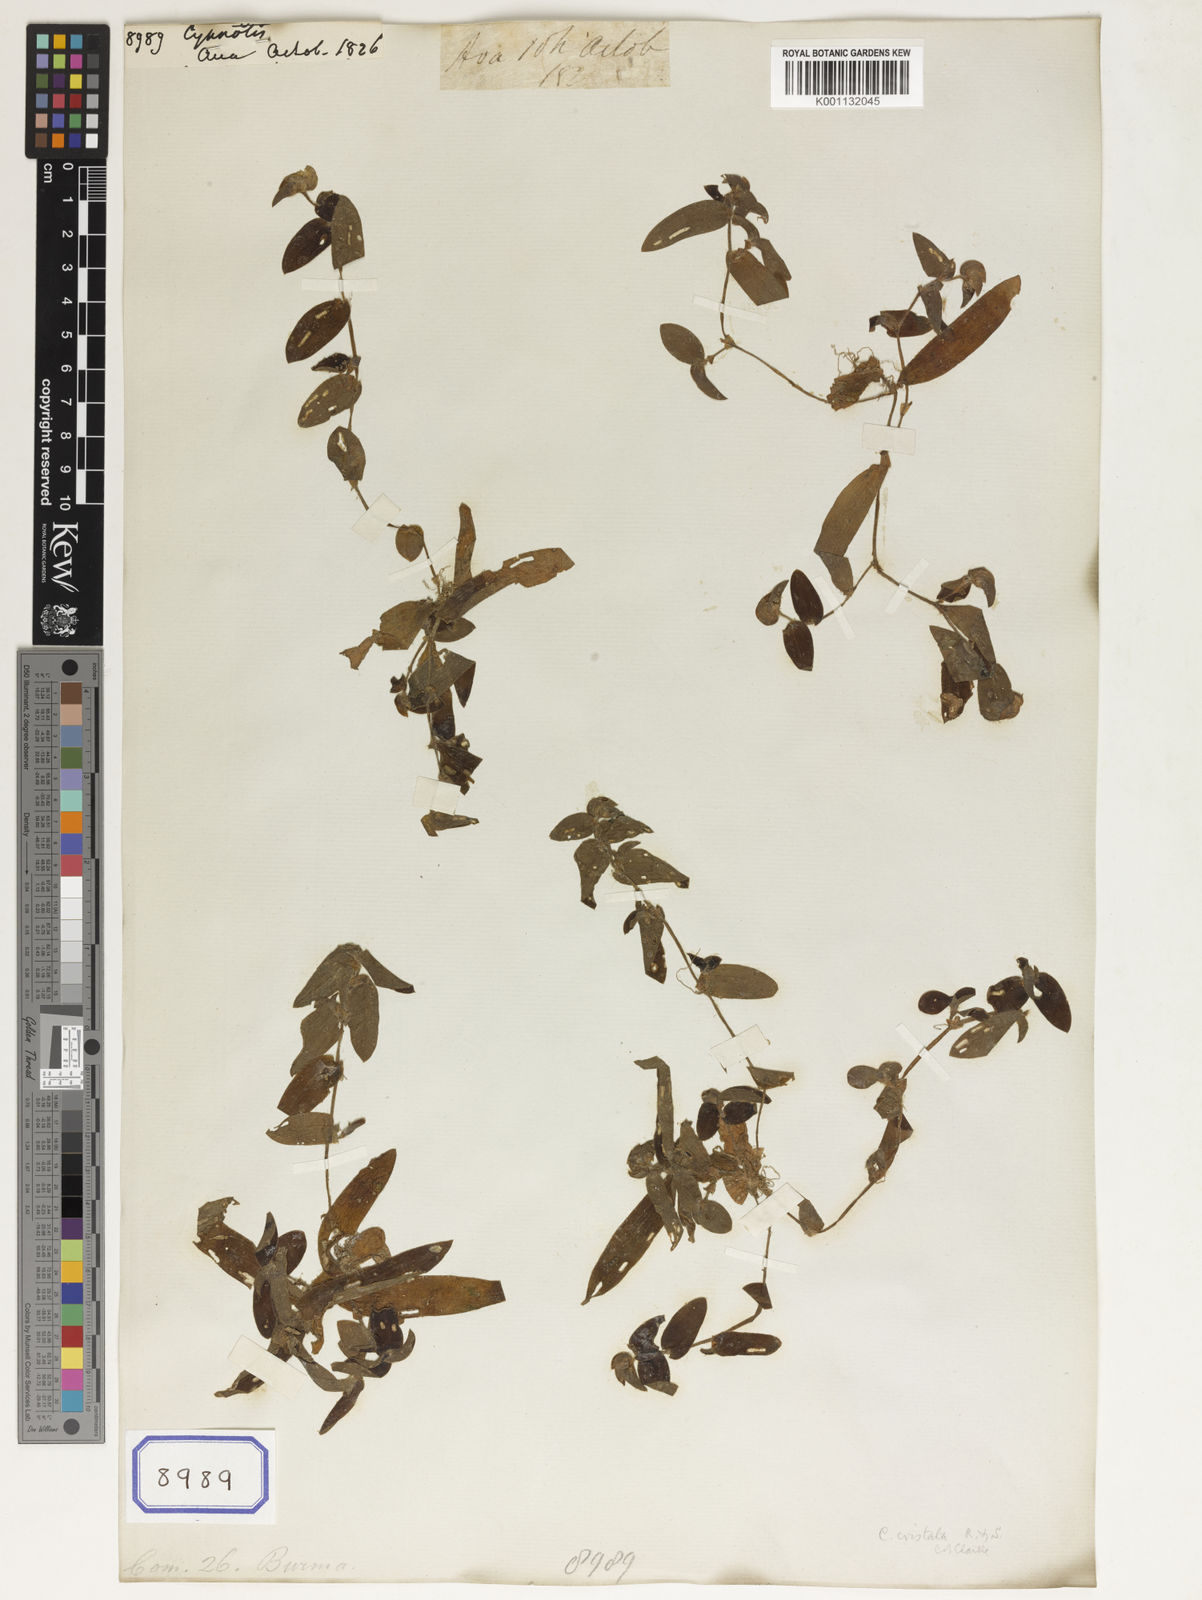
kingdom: Plantae
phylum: Tracheophyta
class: Liliopsida
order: Commelinales
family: Commelinaceae
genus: Cyanotis
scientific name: Cyanotis
